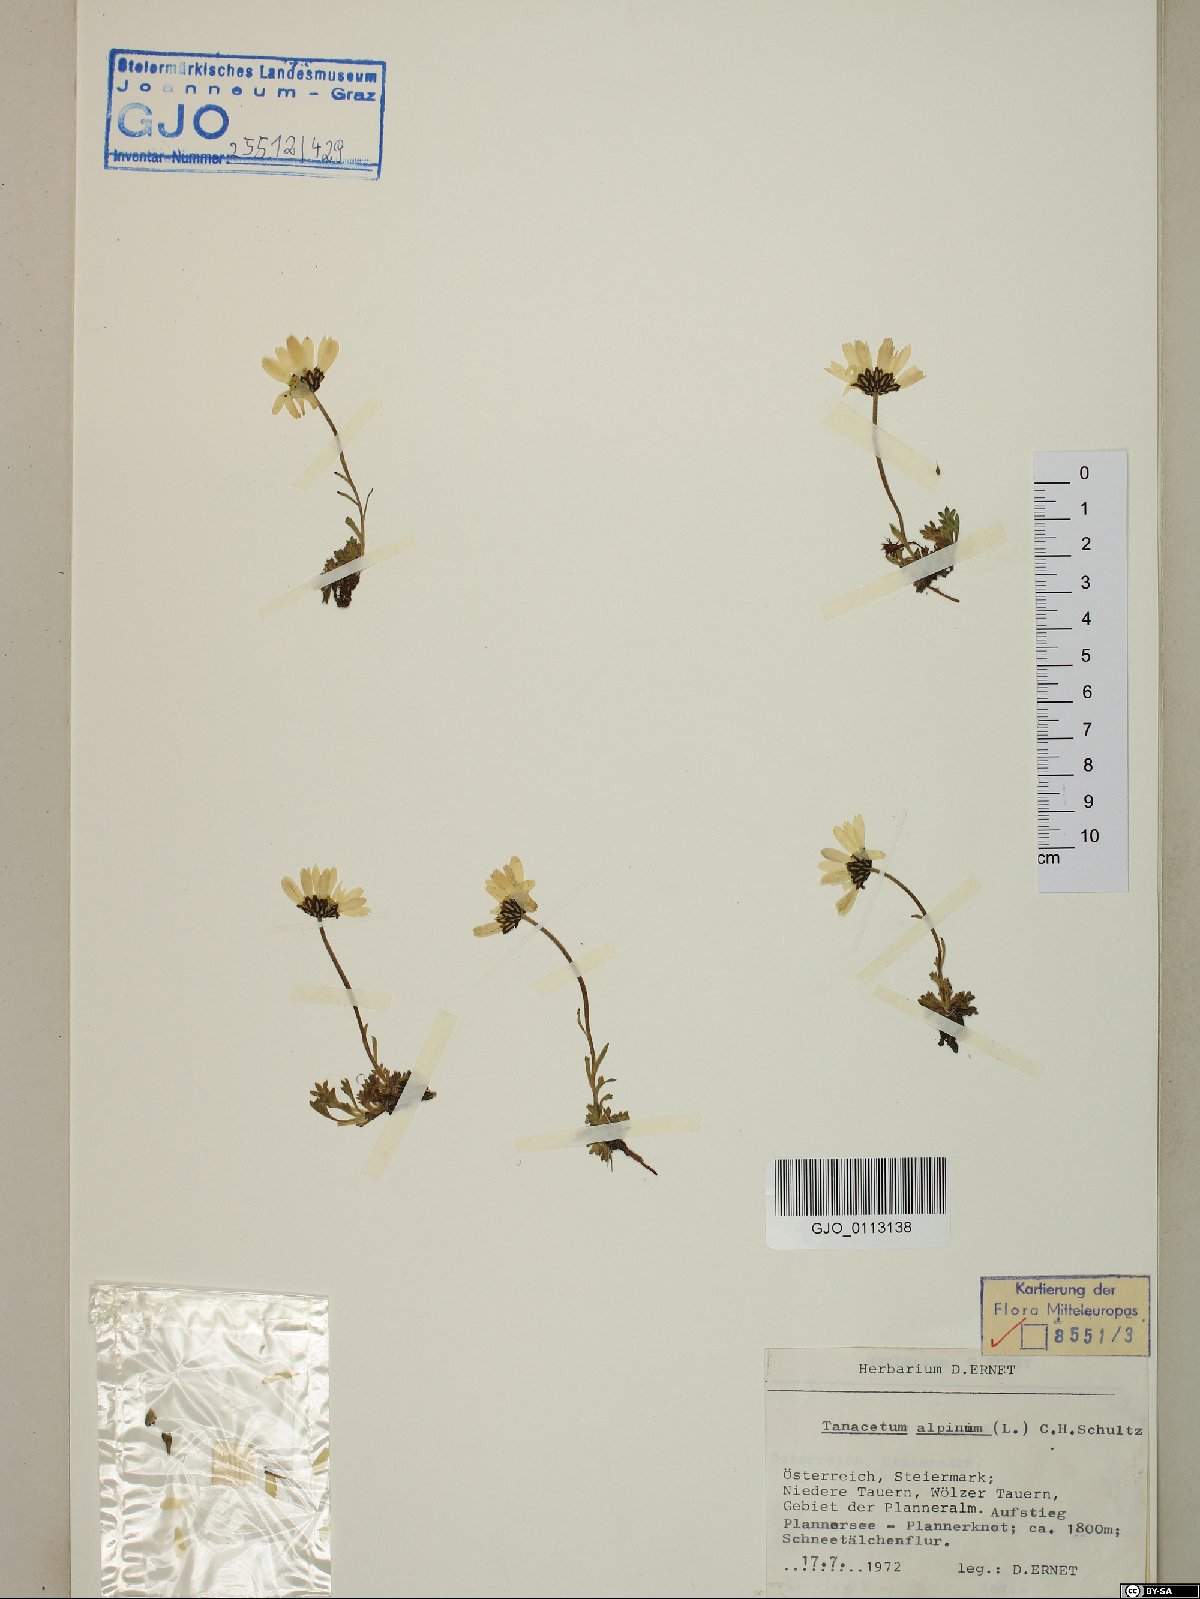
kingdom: Plantae
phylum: Tracheophyta
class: Magnoliopsida
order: Asterales
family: Asteraceae
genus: Leucanthemopsis
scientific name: Leucanthemopsis alpina
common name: Alpine moon daisy
